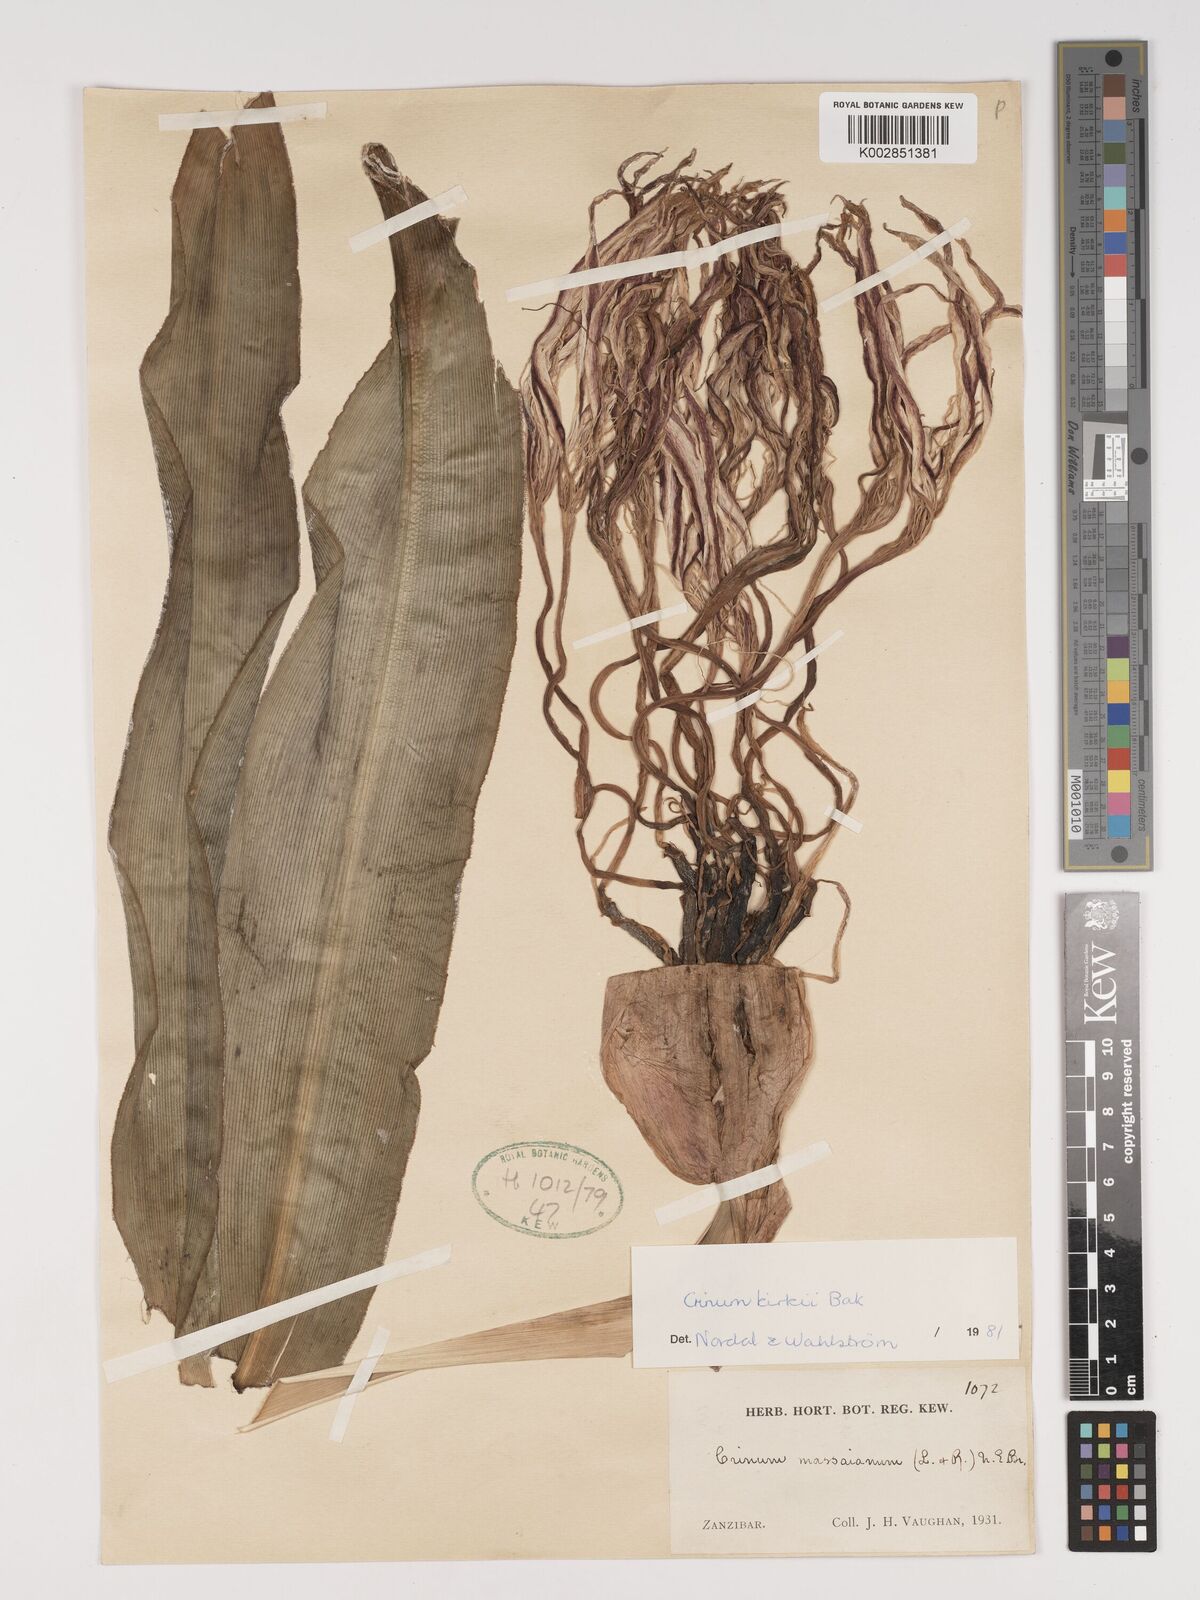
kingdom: Plantae
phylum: Tracheophyta
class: Liliopsida
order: Asparagales
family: Amaryllidaceae
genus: Crinum
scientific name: Crinum kirkii
